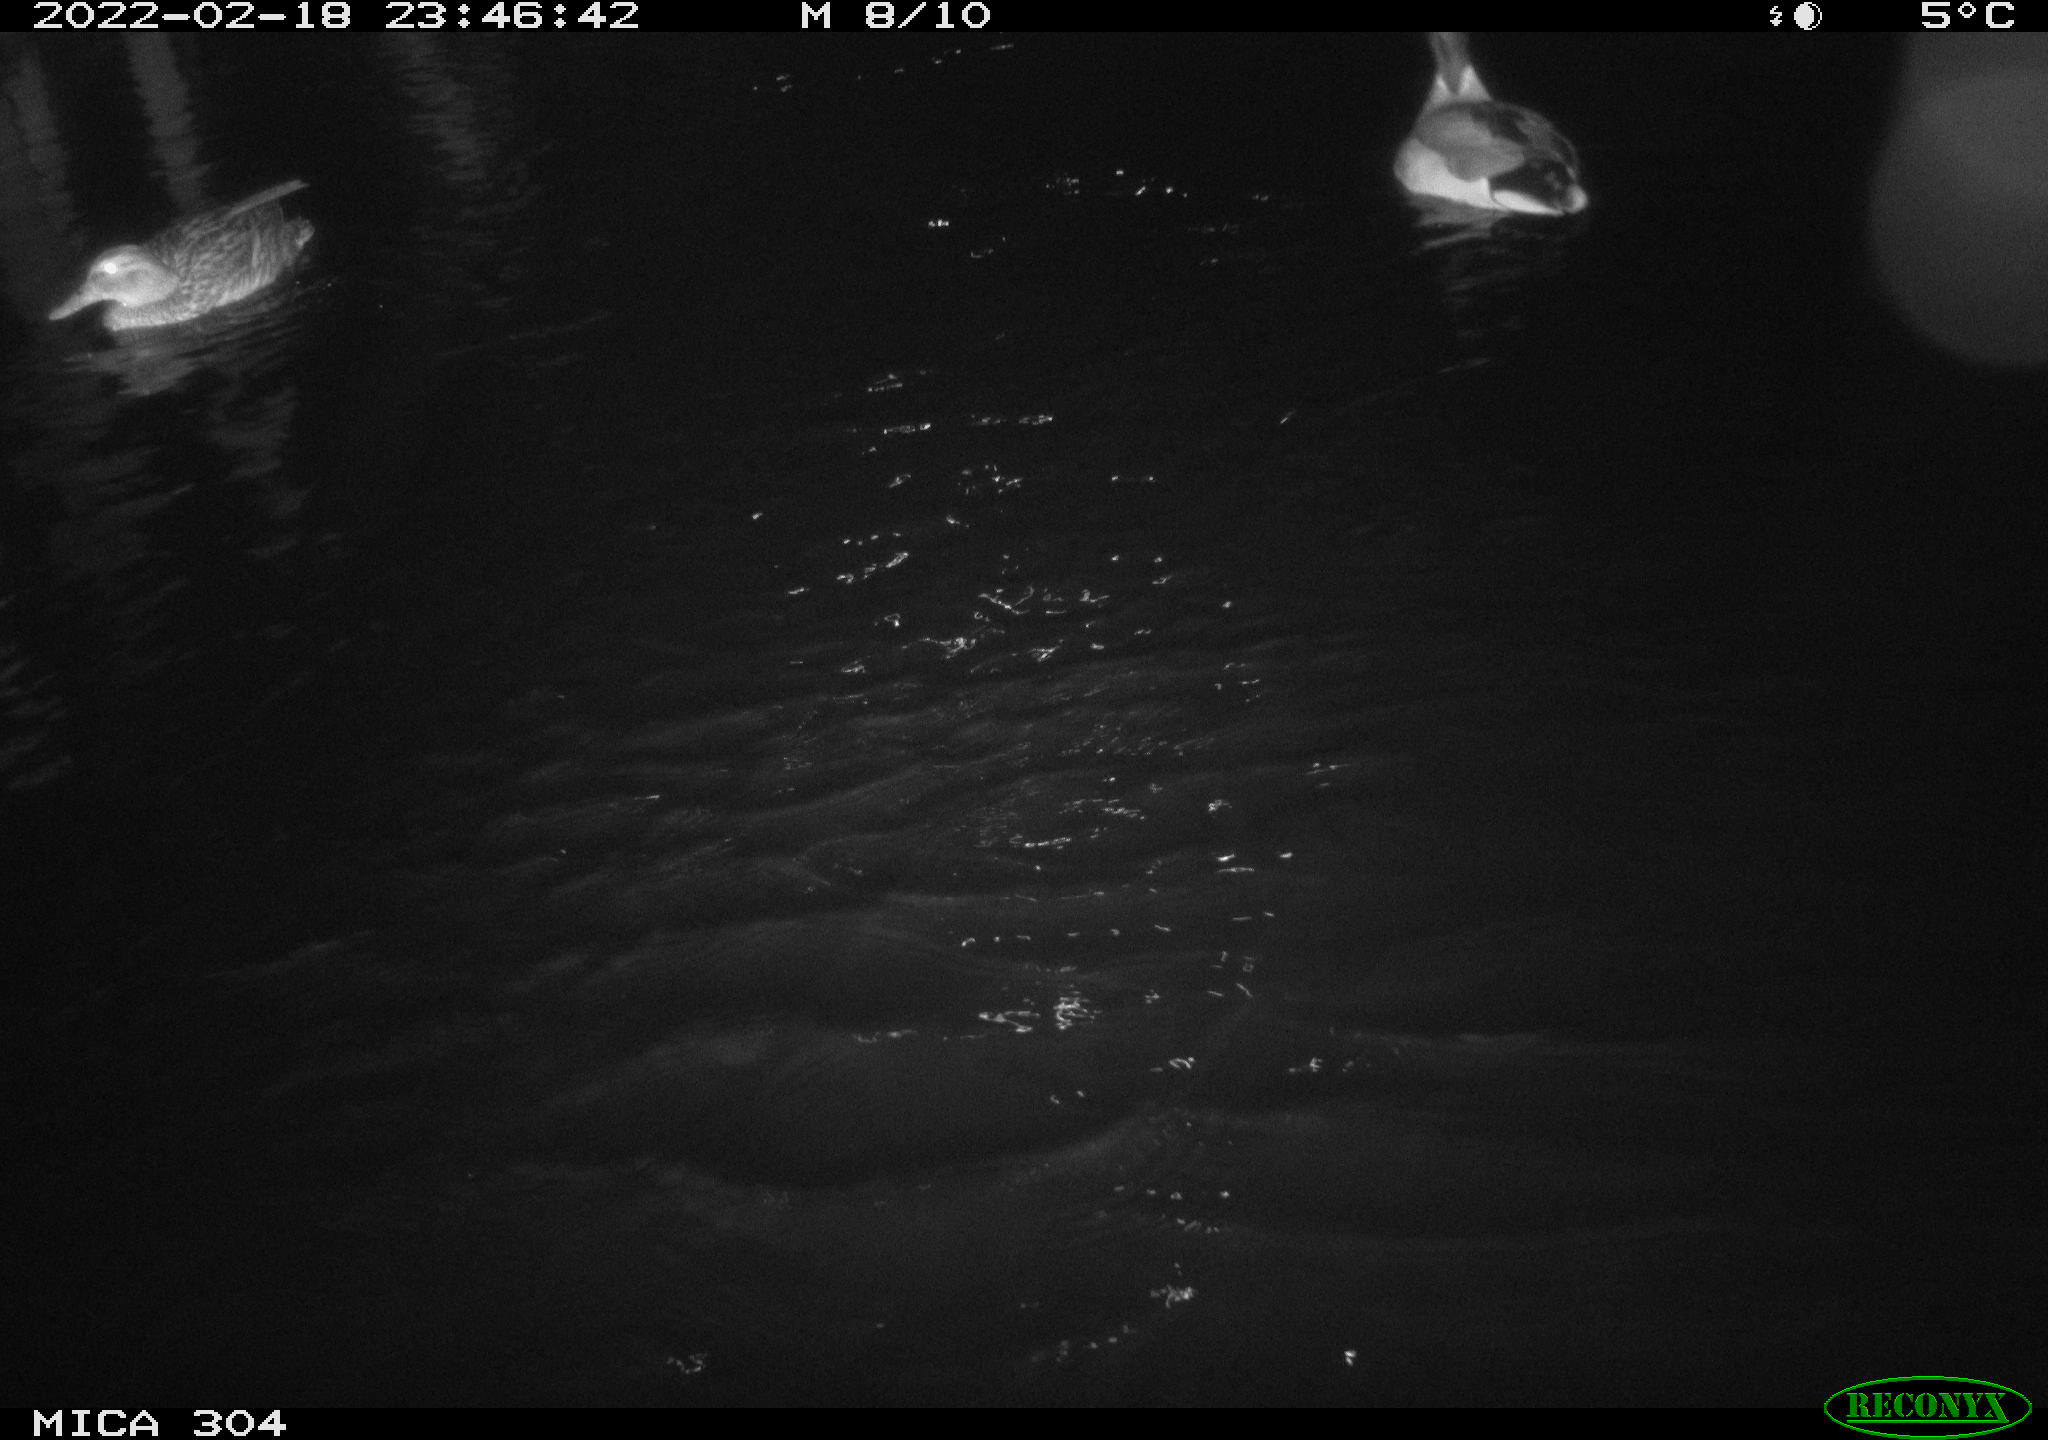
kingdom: Animalia
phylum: Chordata
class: Aves
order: Anseriformes
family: Anatidae
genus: Anas
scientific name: Anas platyrhynchos
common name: Mallard
